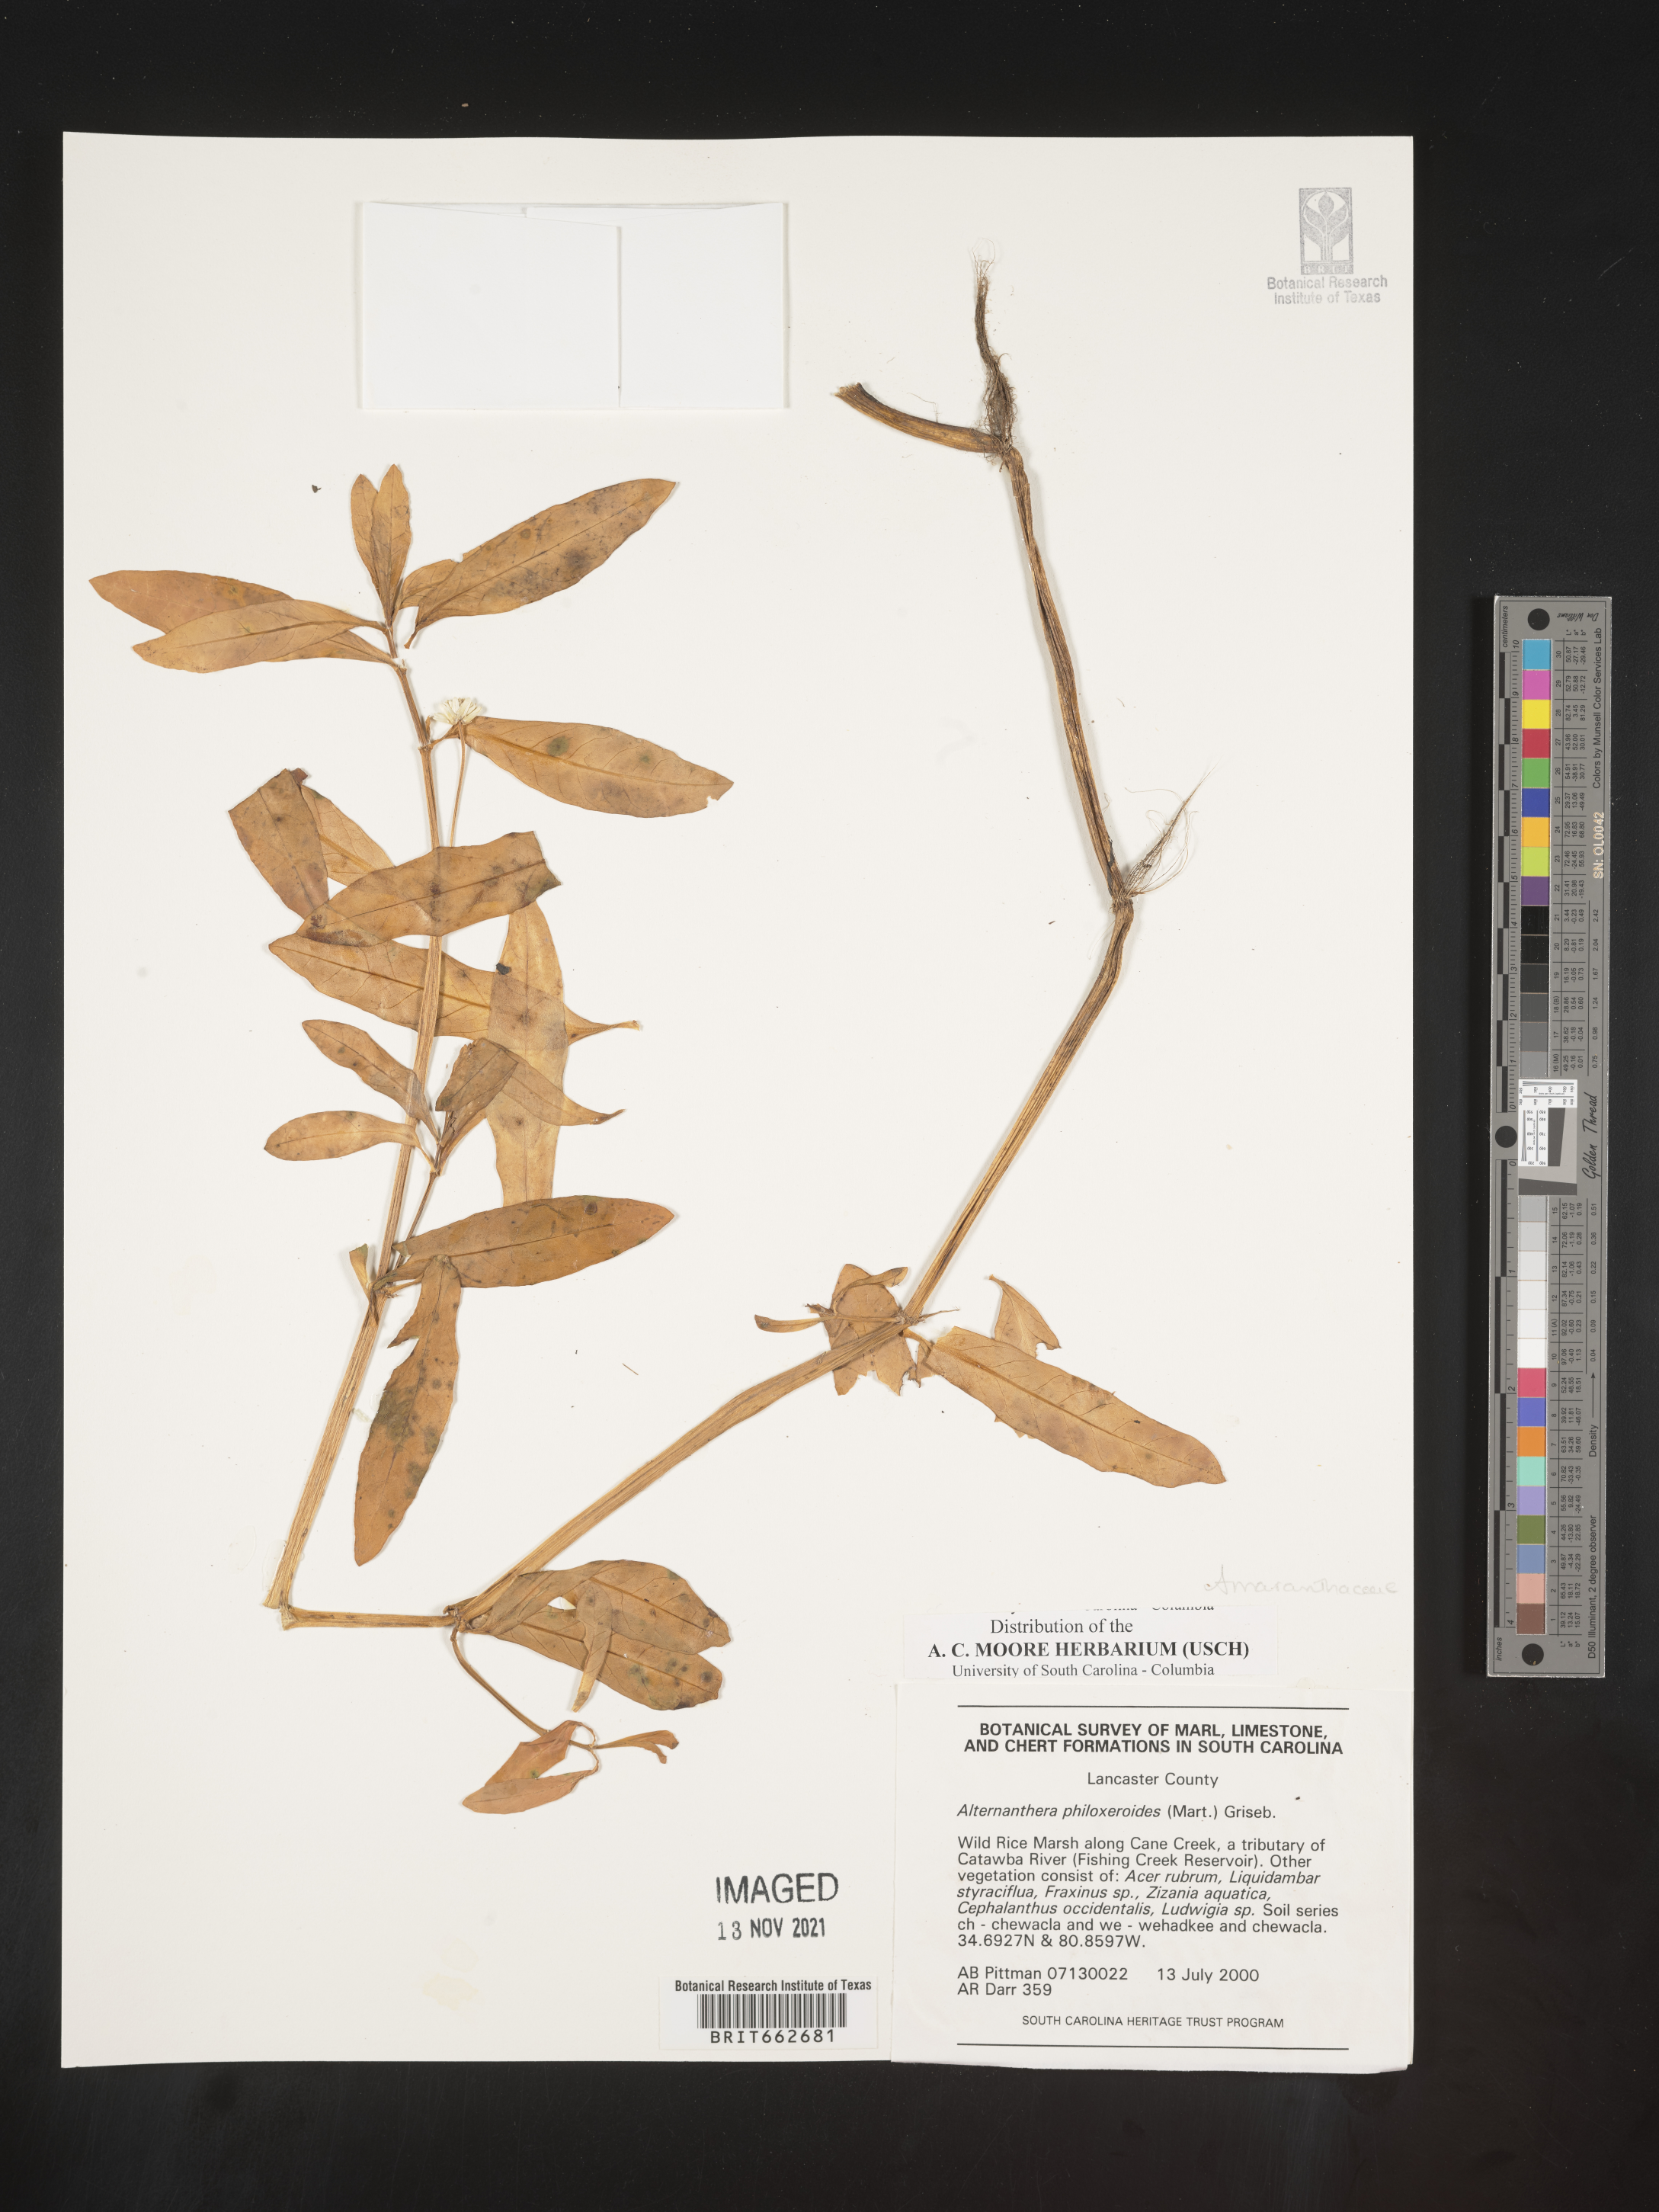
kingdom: Plantae
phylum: Tracheophyta
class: Magnoliopsida
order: Caryophyllales
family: Amaranthaceae
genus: Alternanthera
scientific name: Alternanthera philoxeroides
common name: Alligatorweed
